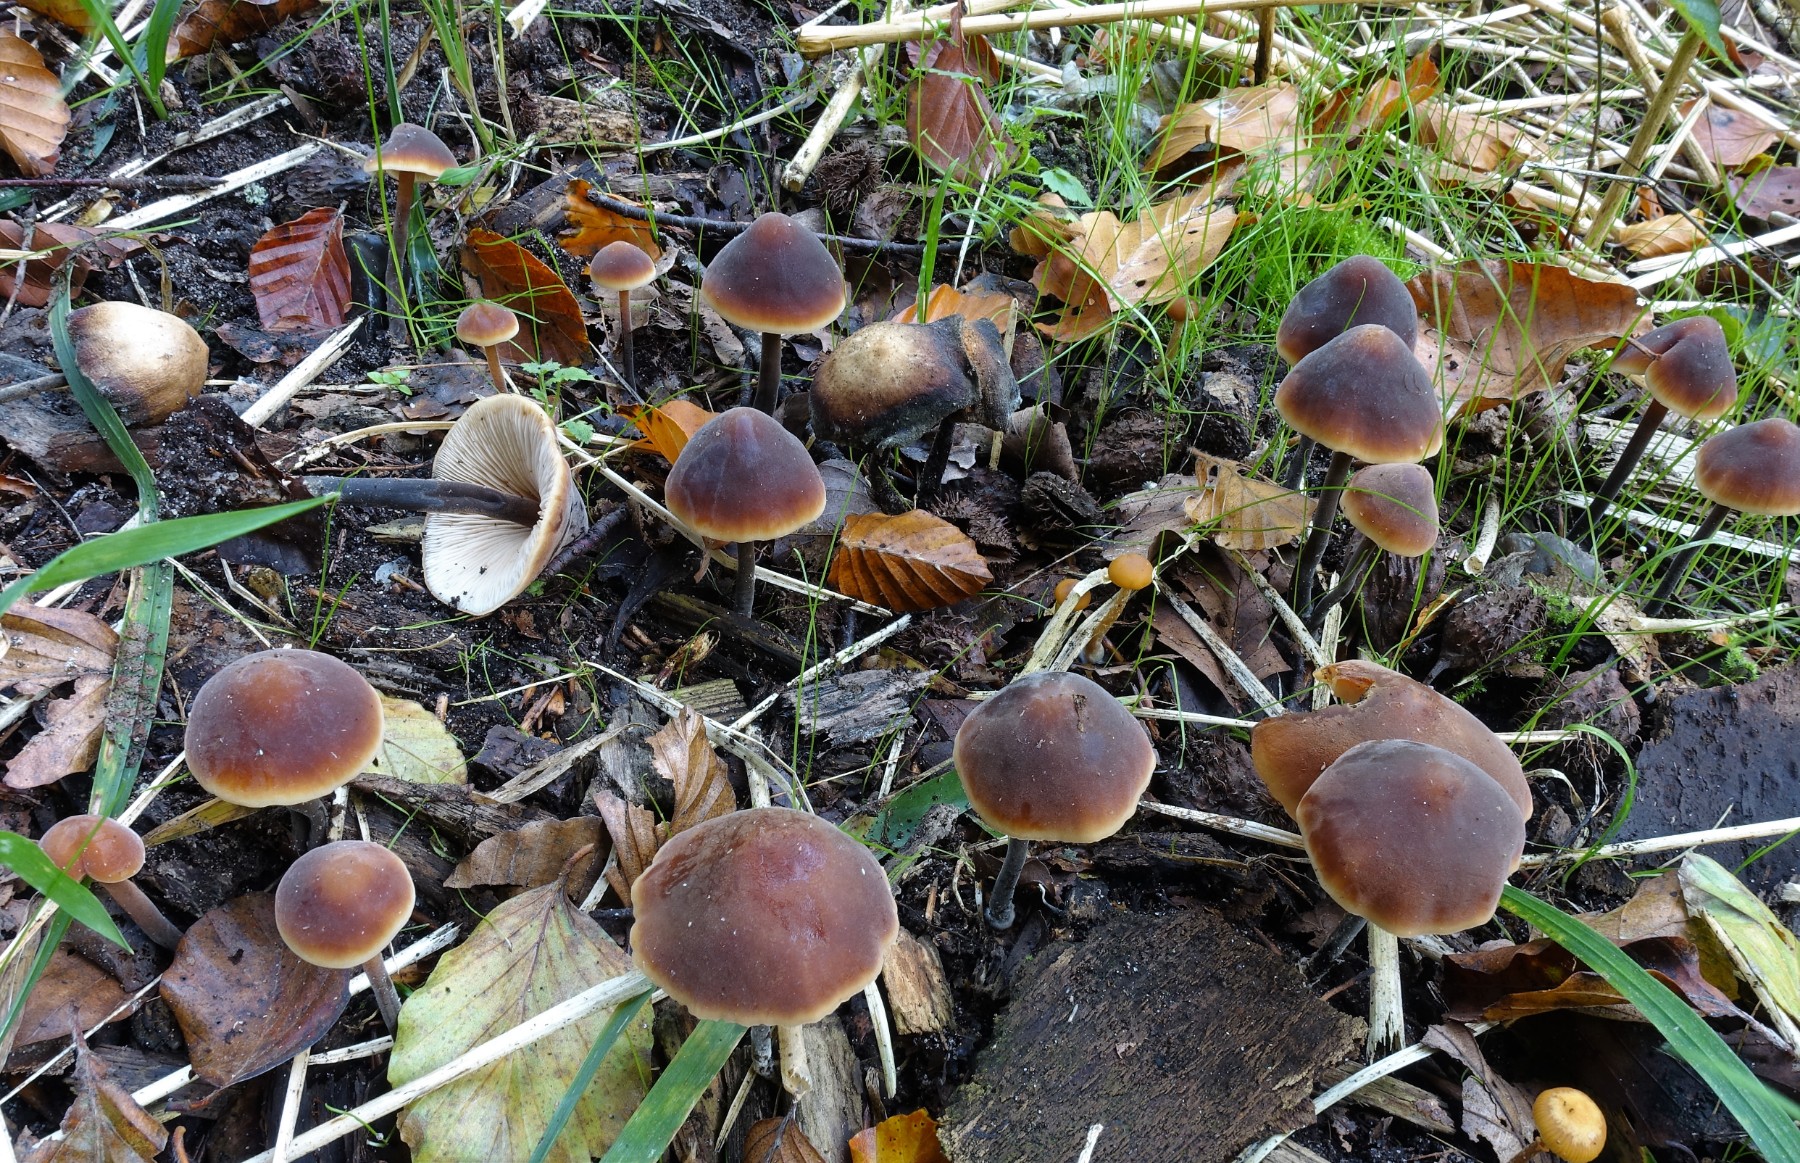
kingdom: Fungi
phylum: Basidiomycota
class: Agaricomycetes
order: Agaricales
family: Macrocystidiaceae
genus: Macrocystidia
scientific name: Macrocystidia cucumis
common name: agurkehat
